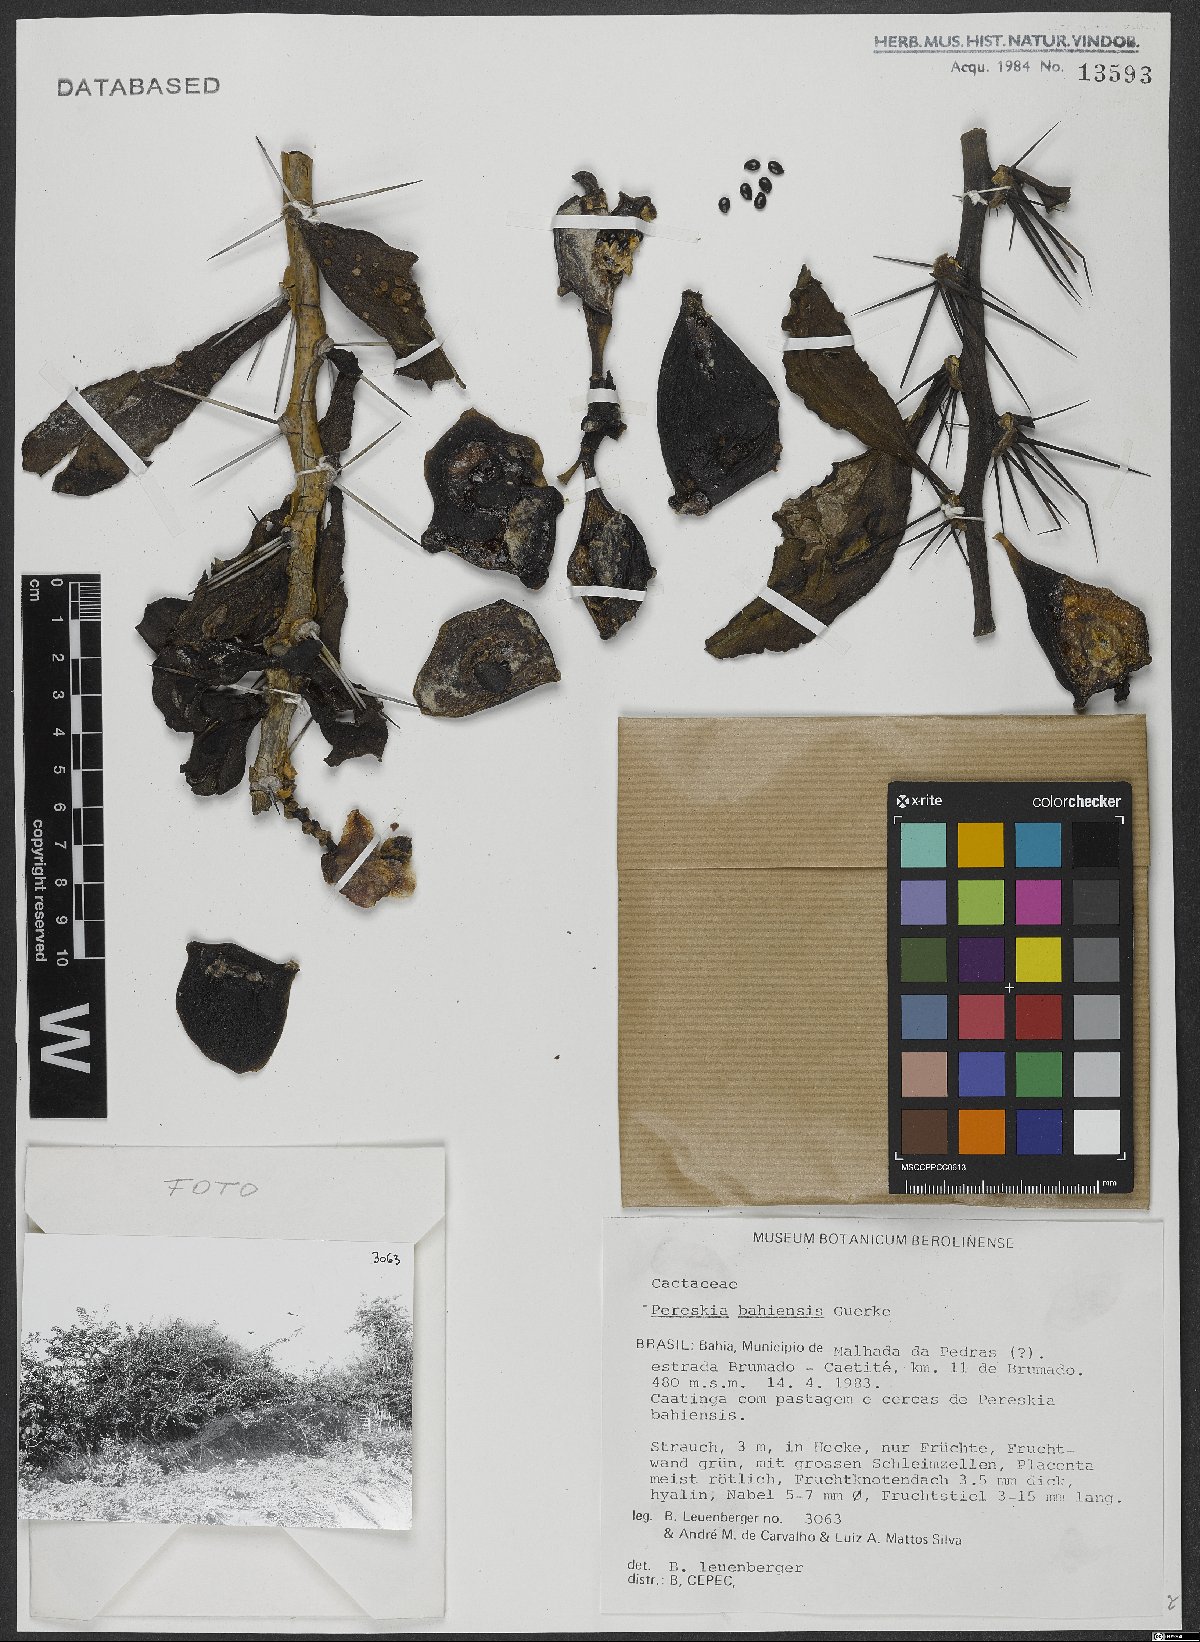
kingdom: Plantae
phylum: Tracheophyta
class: Magnoliopsida
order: Caryophyllales
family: Cactaceae
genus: Pereskia
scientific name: Pereskia bahiensis
